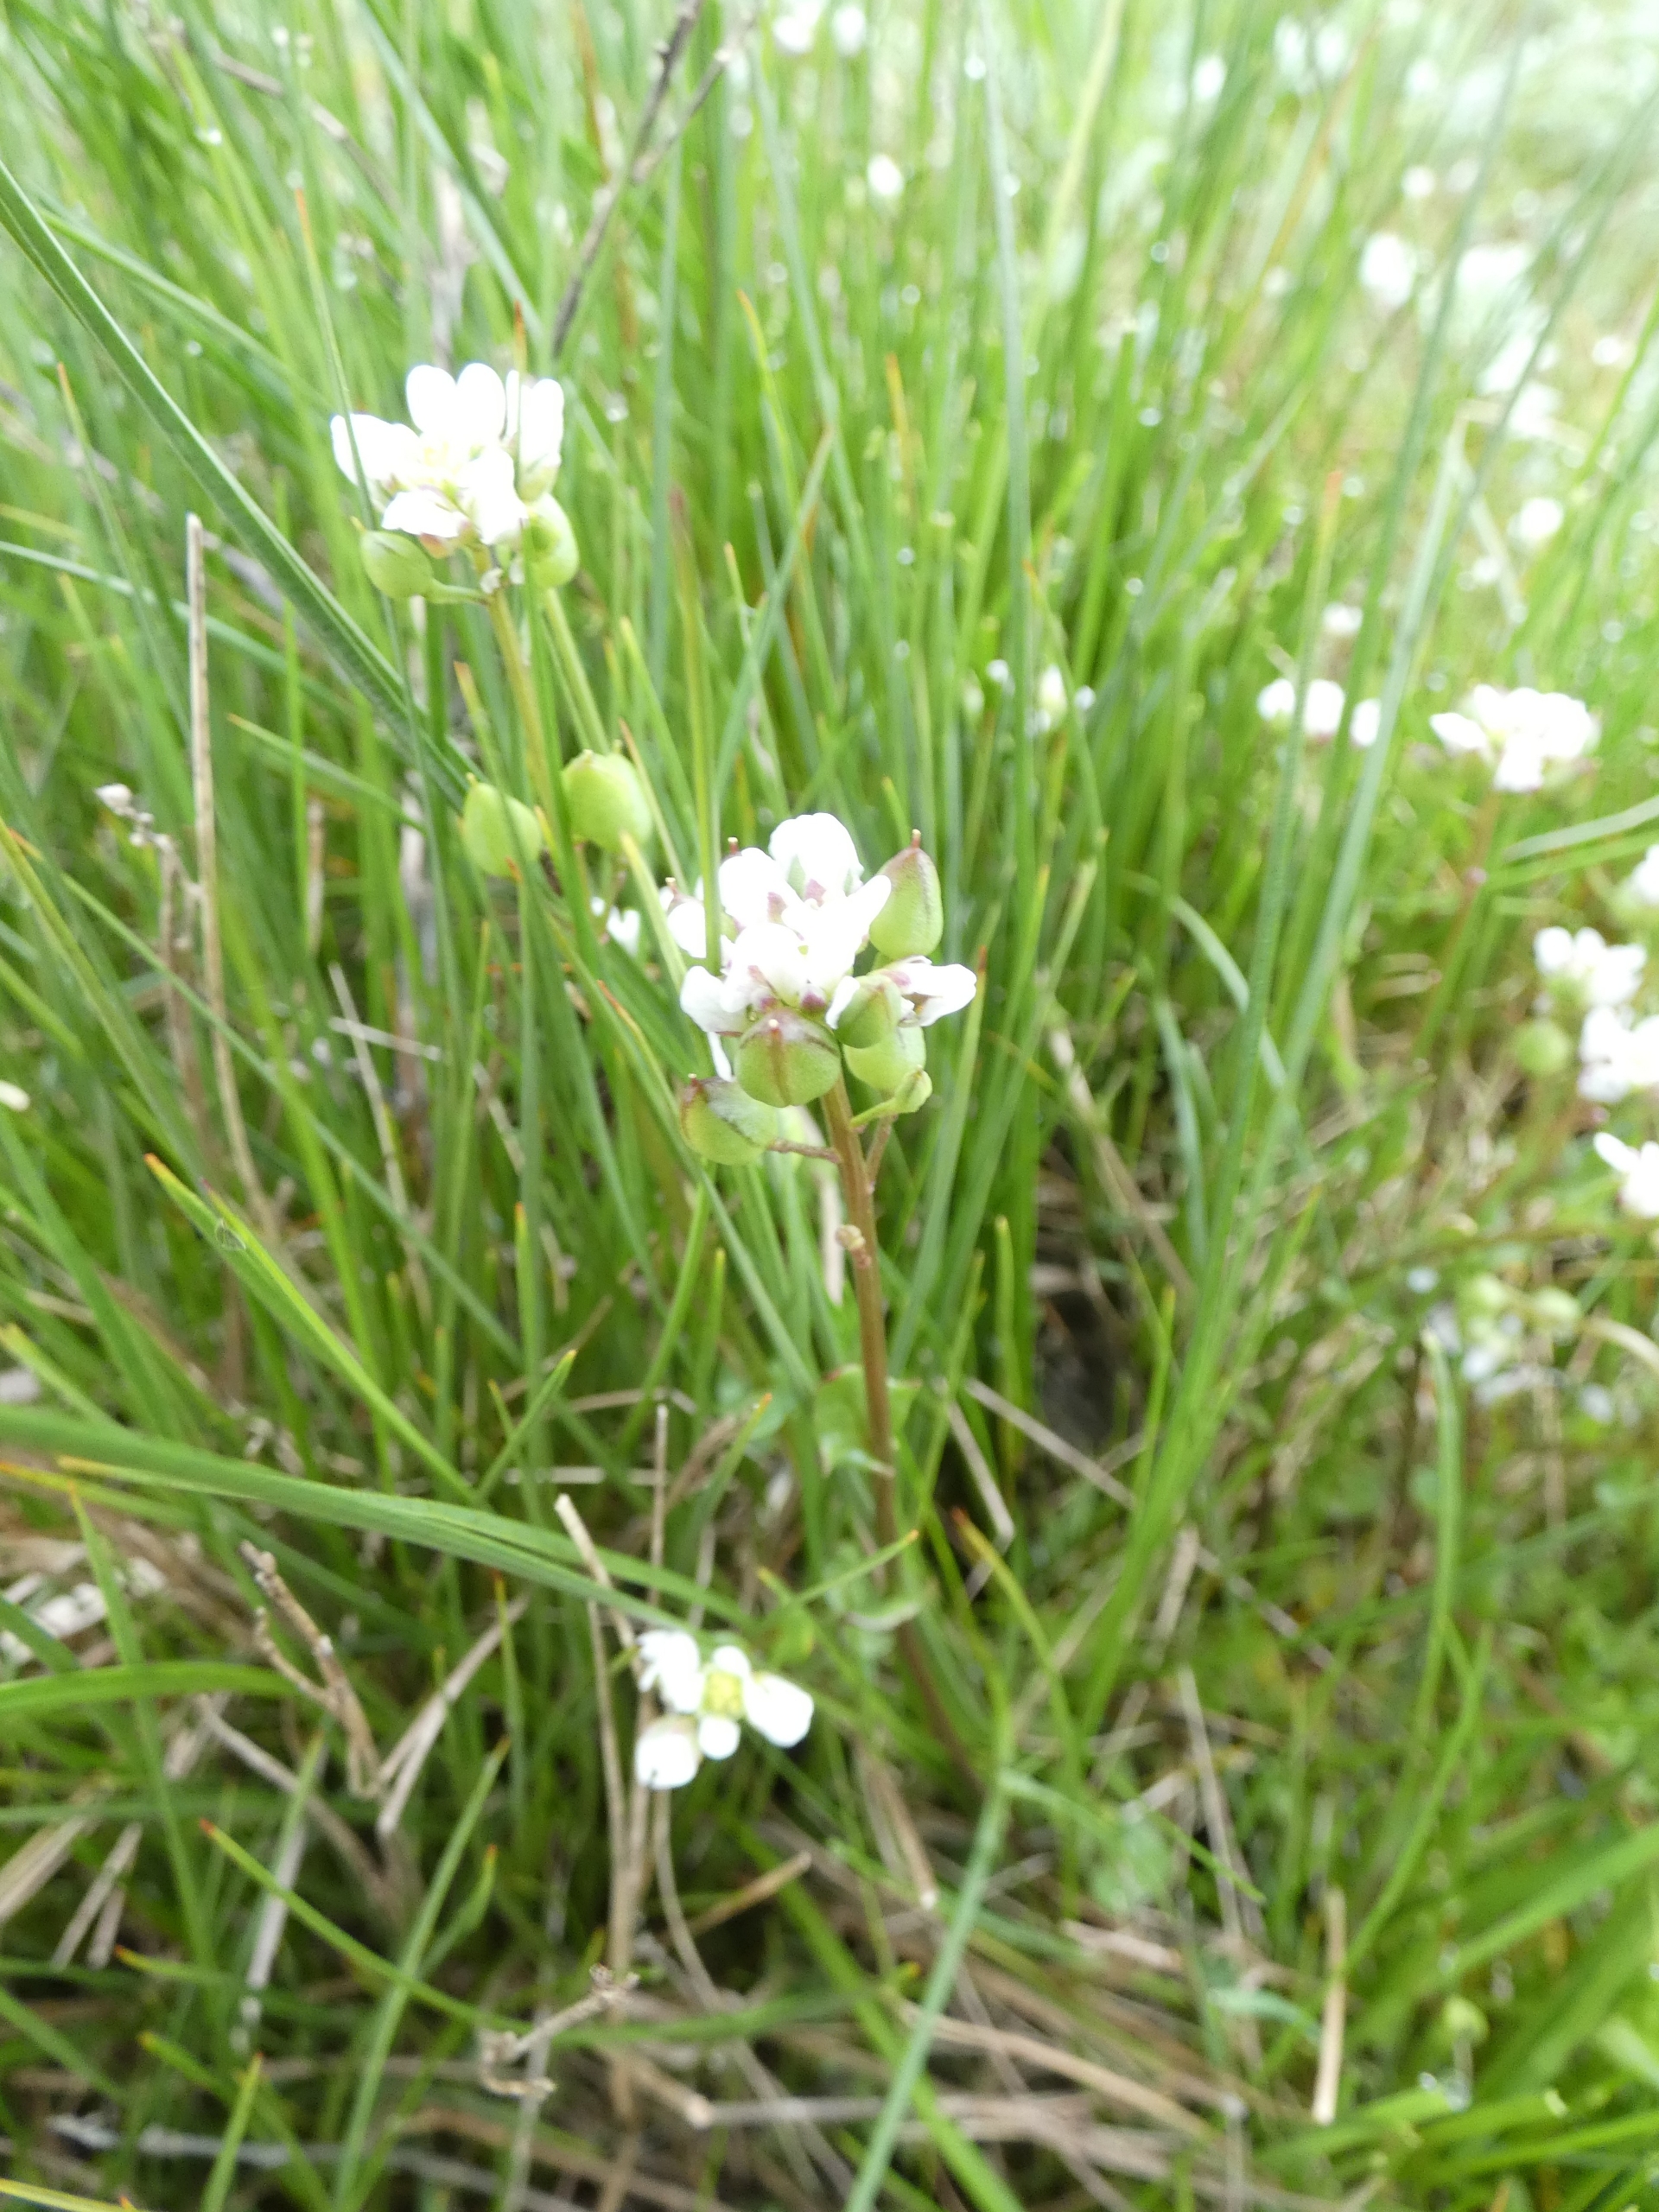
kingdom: Plantae
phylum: Tracheophyta
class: Magnoliopsida
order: Brassicales
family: Brassicaceae
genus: Cochlearia
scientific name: Cochlearia officinalis
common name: Læge-kokleare (underart)
